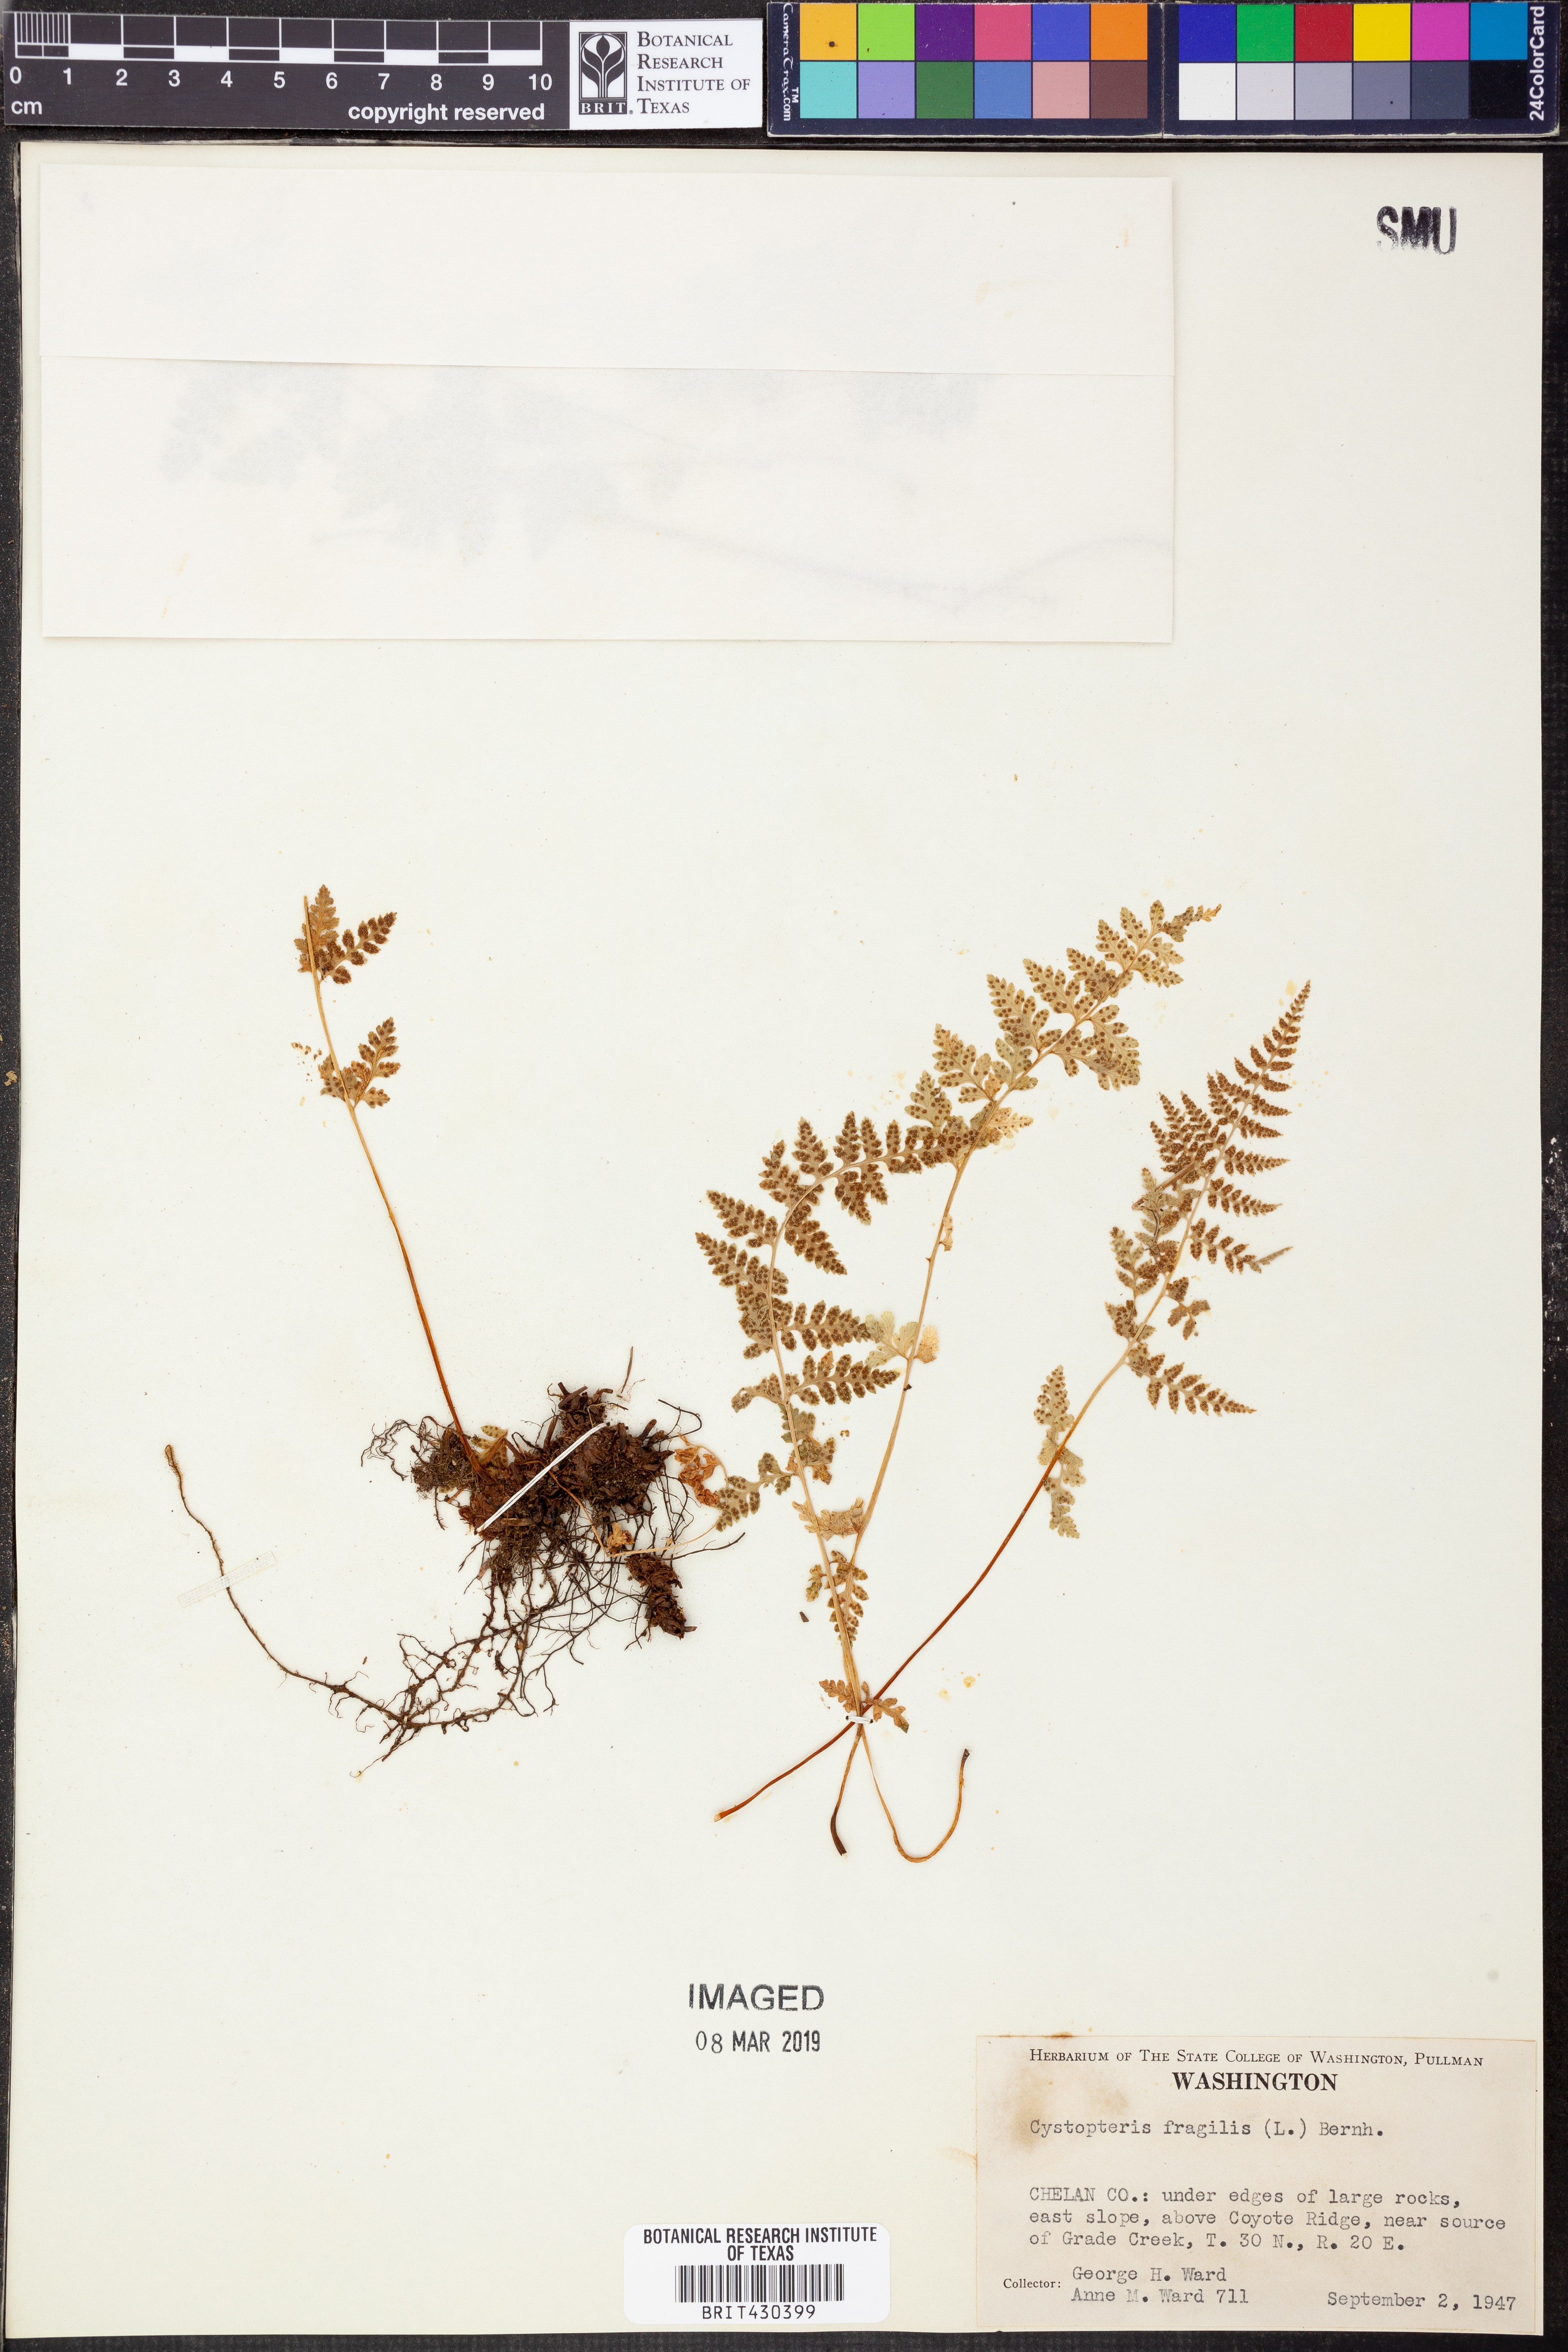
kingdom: Plantae
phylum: Tracheophyta
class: Polypodiopsida
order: Polypodiales
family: Cystopteridaceae
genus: Cystopteris
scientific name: Cystopteris fragilis
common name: Brittle bladder fern
